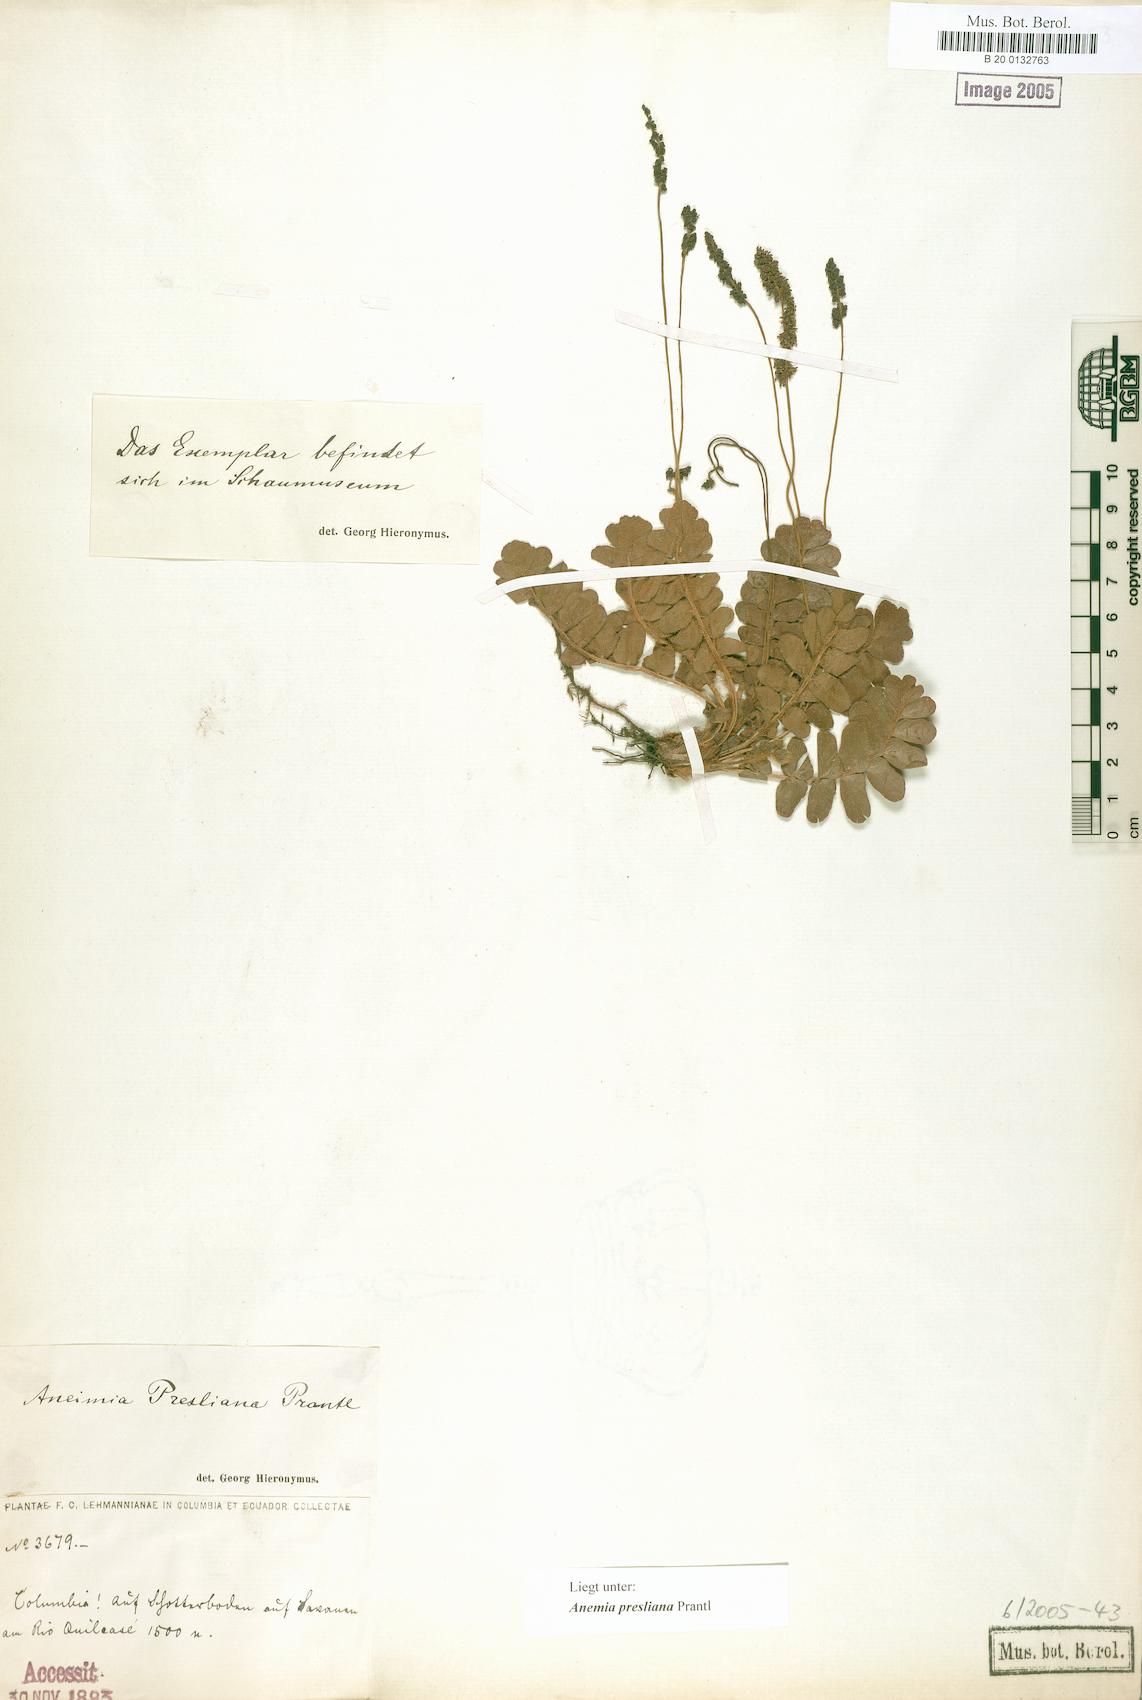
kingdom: Plantae
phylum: Tracheophyta
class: Polypodiopsida
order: Schizaeales
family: Anemiaceae
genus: Anemia
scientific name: Anemia presliana
